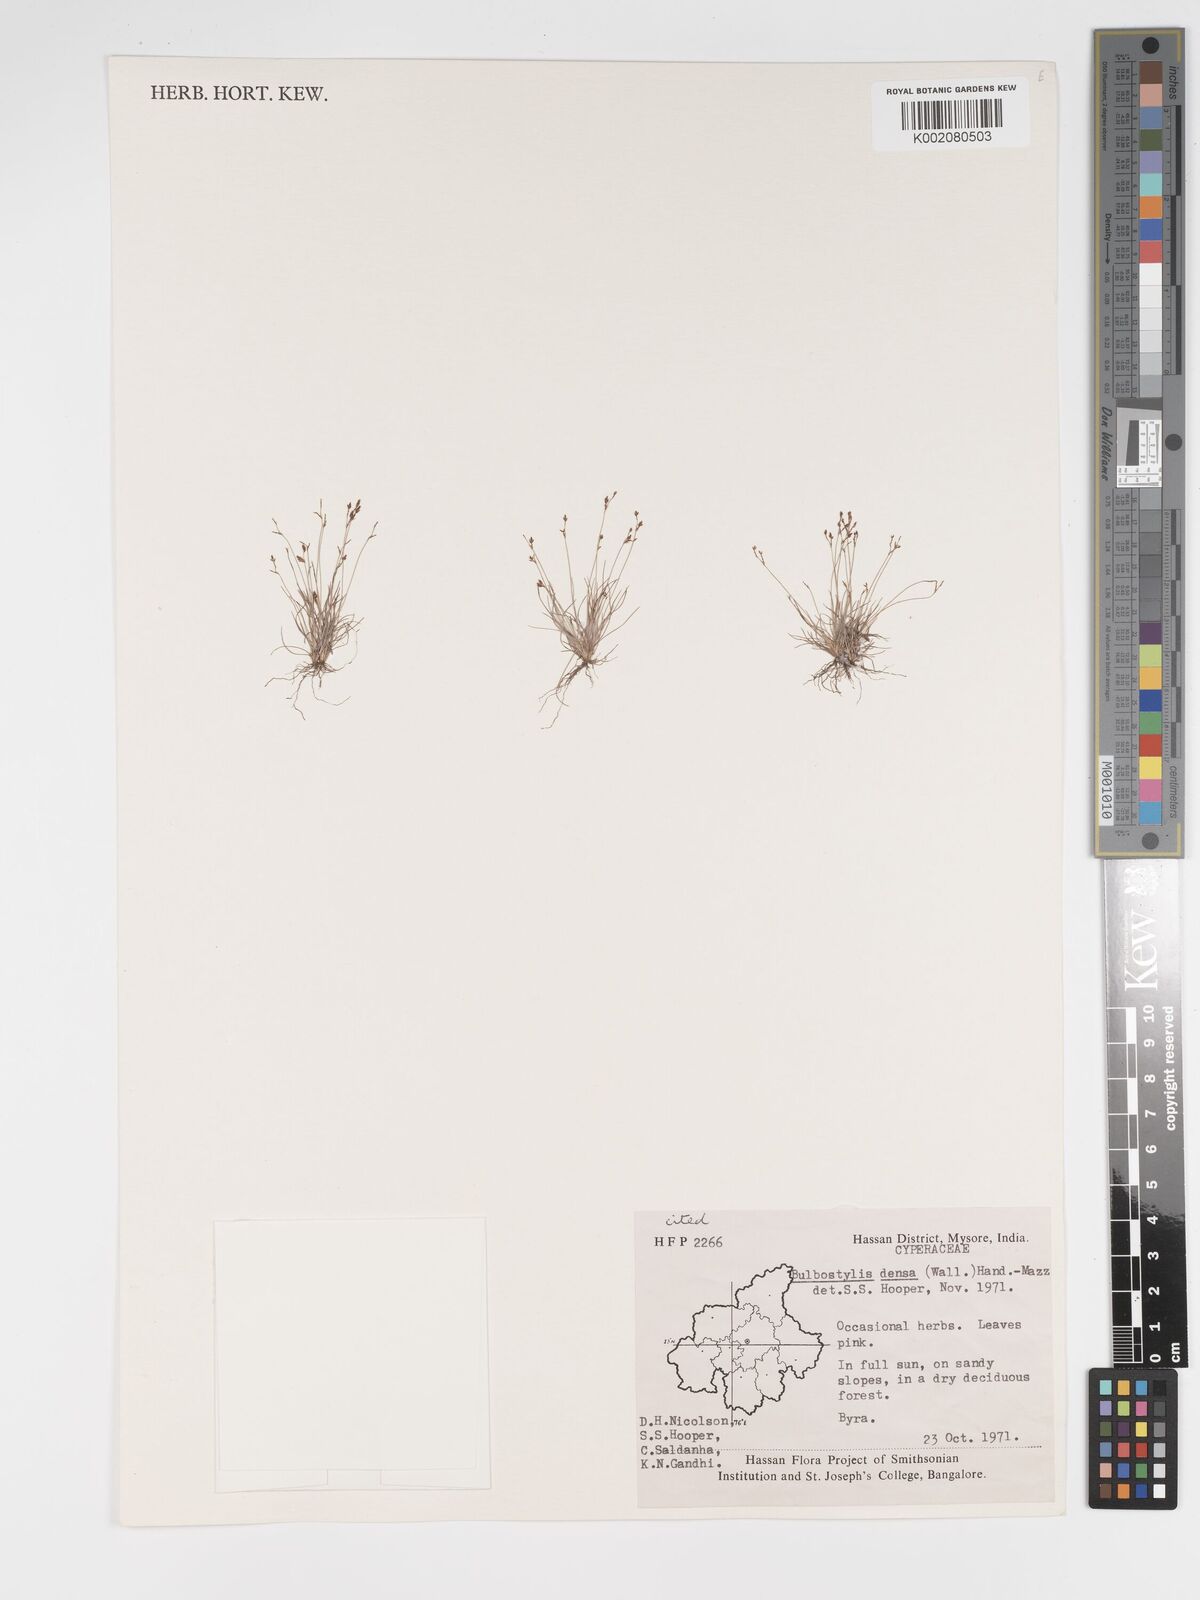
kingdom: Plantae
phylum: Tracheophyta
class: Liliopsida
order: Poales
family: Cyperaceae
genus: Bulbostylis
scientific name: Bulbostylis capillaris
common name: Densetuft hairsedge
